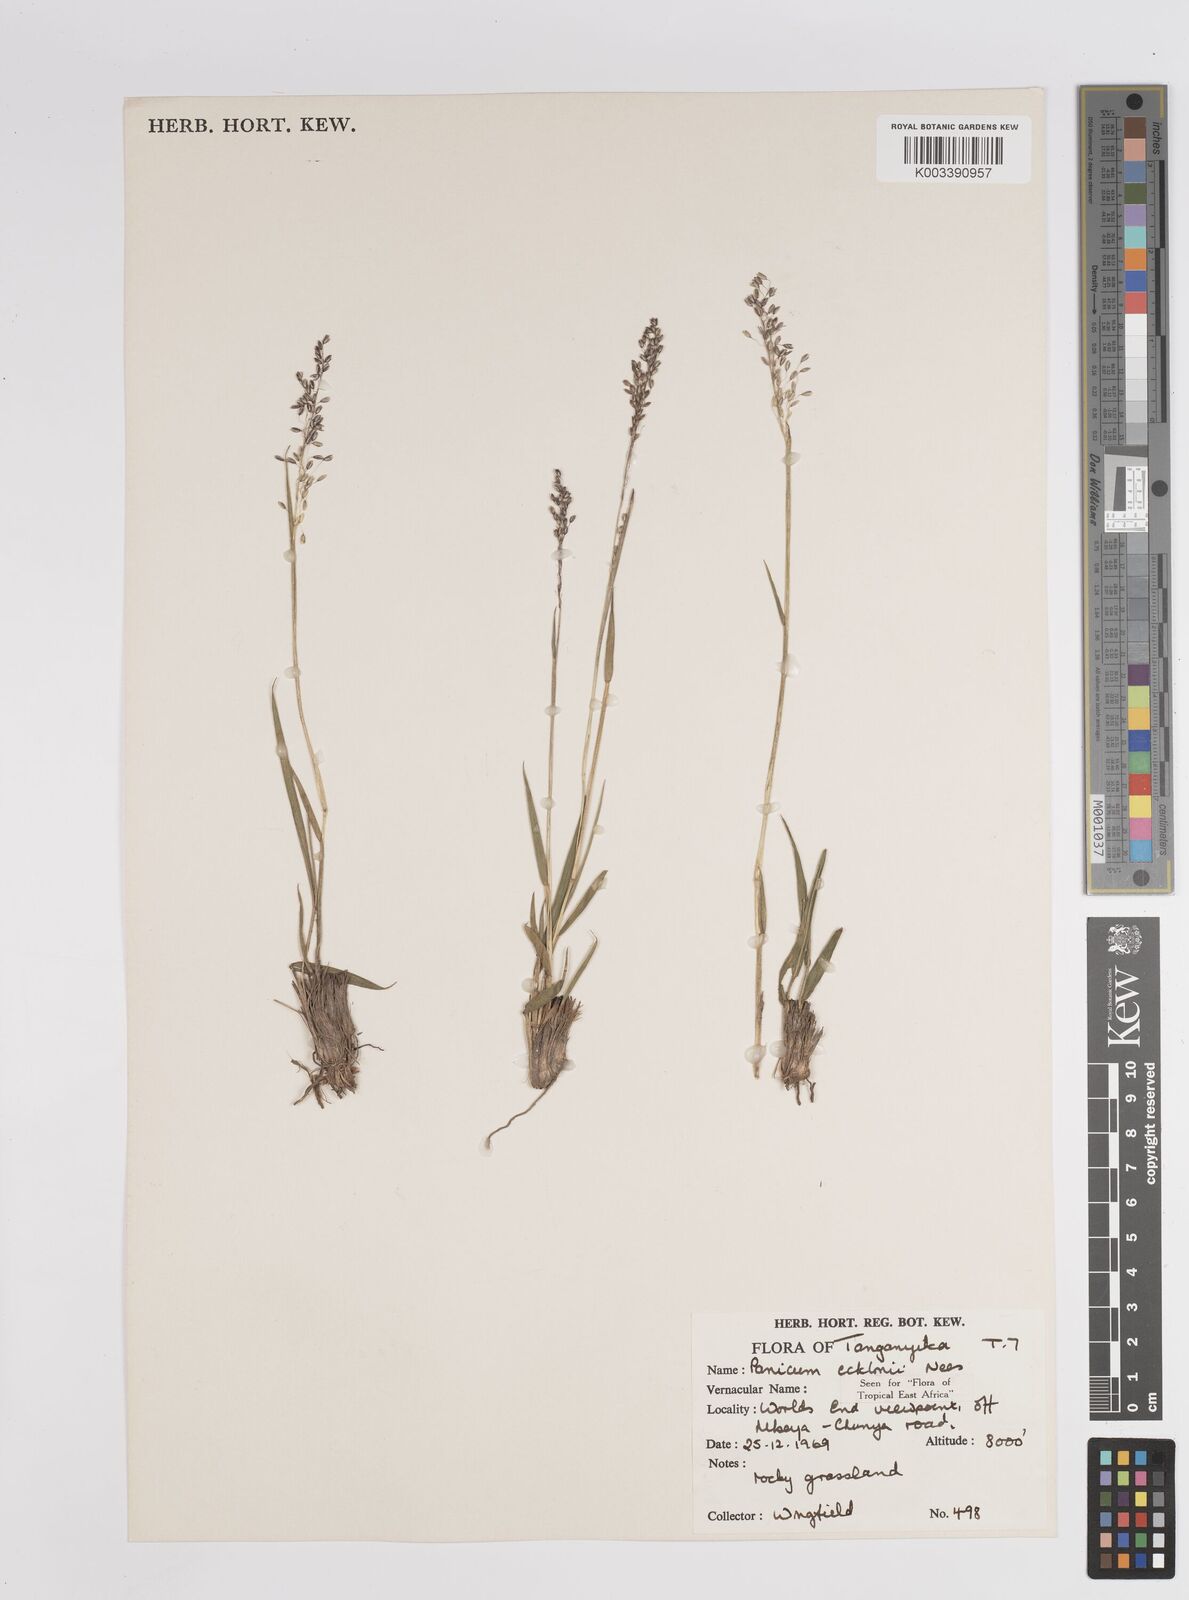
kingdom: Plantae
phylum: Tracheophyta
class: Liliopsida
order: Poales
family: Poaceae
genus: Adenochloa
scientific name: Adenochloa ecklonii
